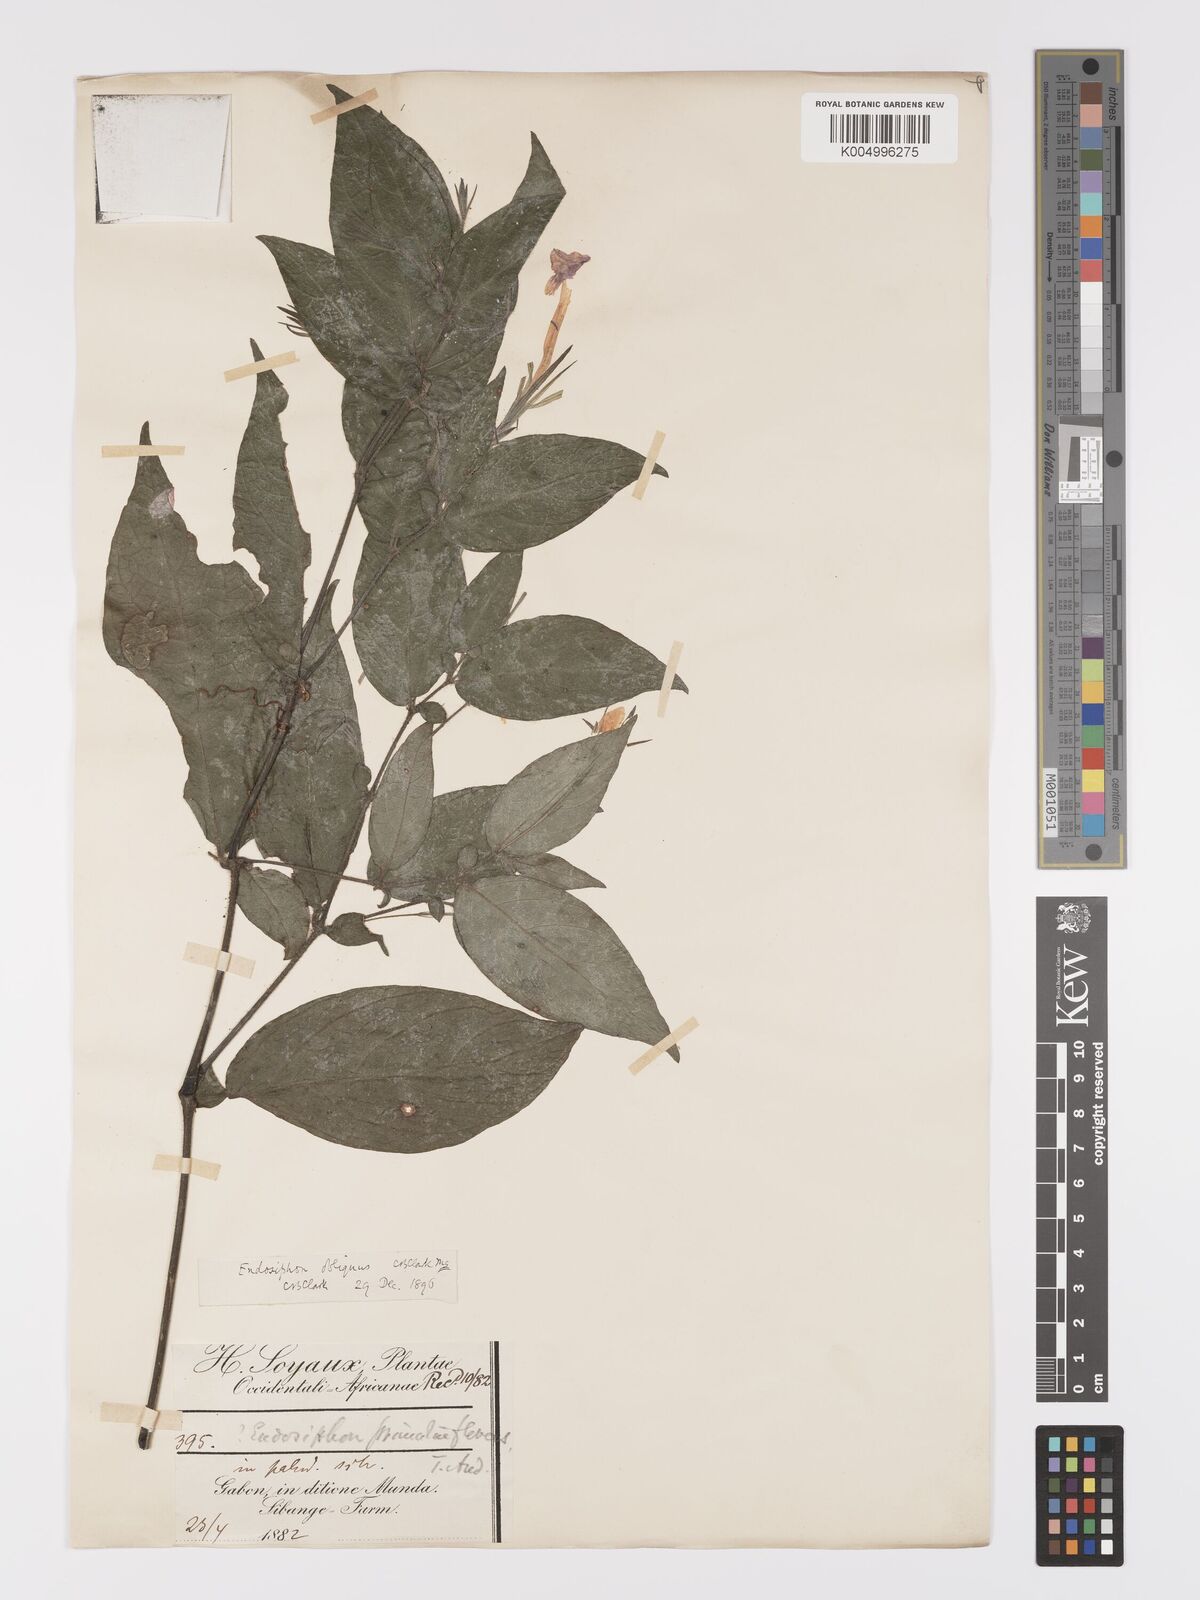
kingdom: Plantae
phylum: Tracheophyta
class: Magnoliopsida
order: Lamiales
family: Acanthaceae
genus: Ruellia
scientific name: Ruellia primuloides
